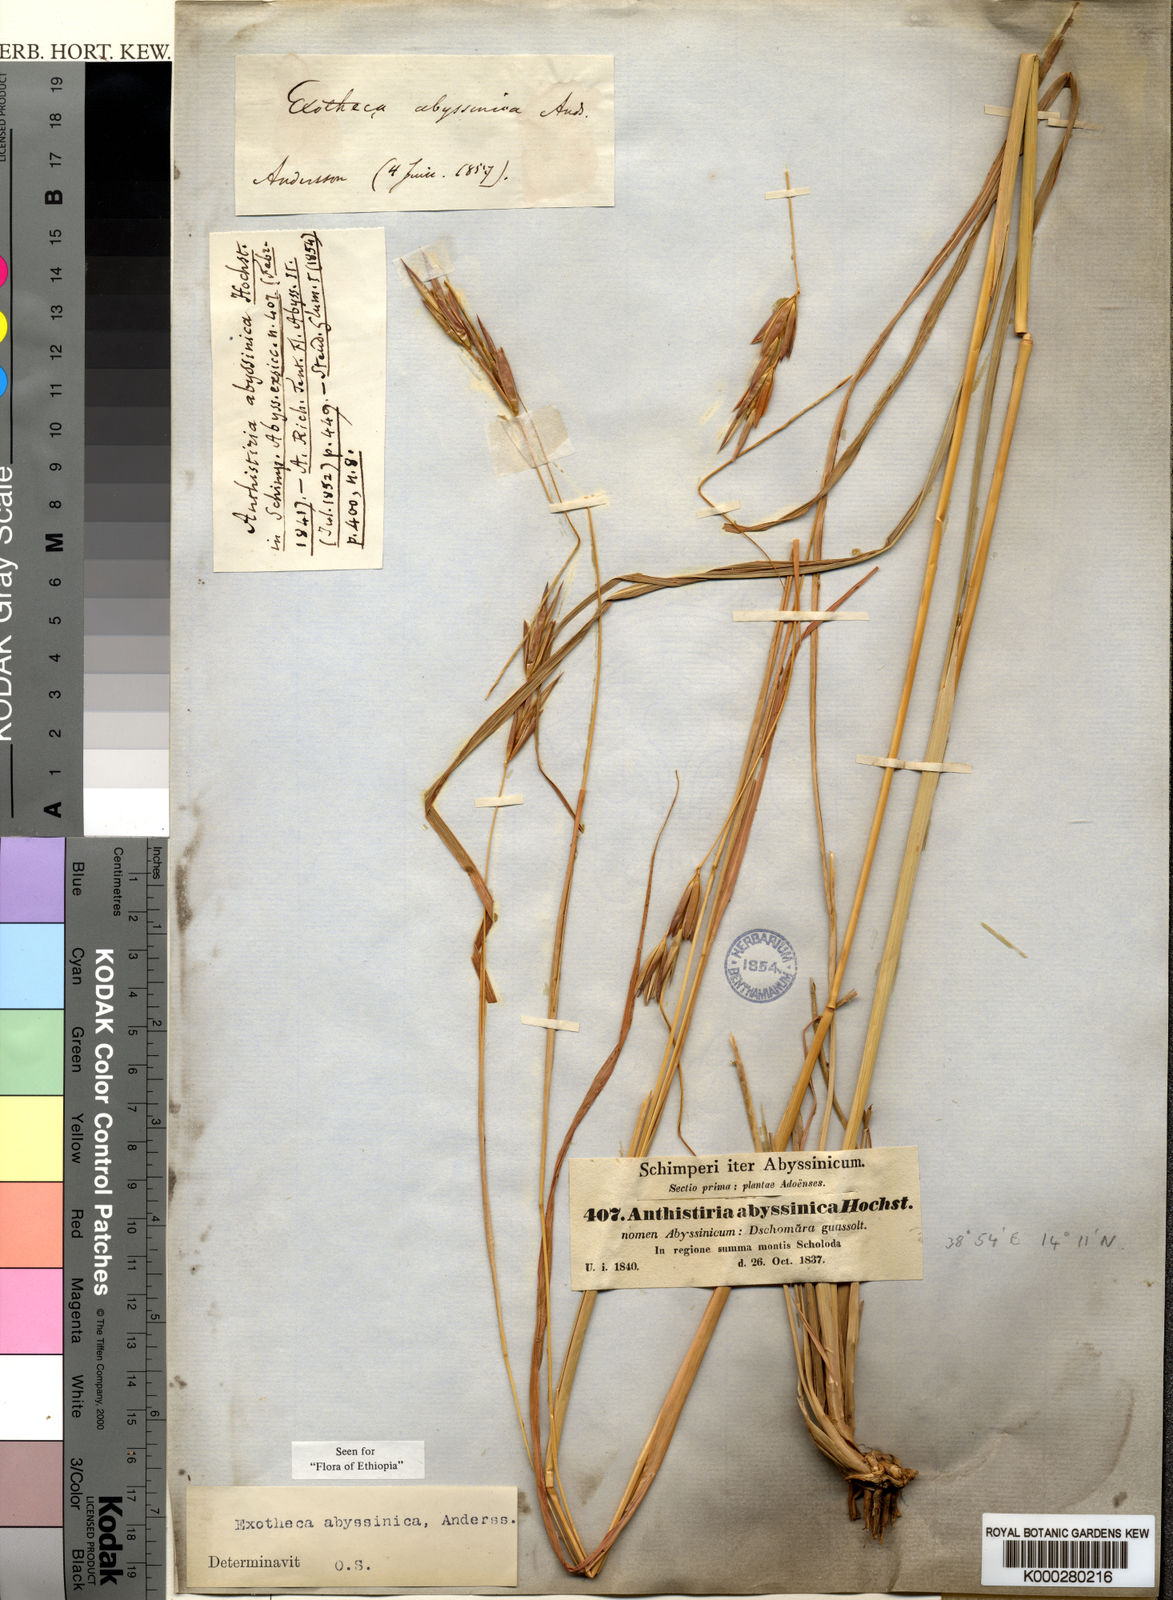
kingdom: Plantae
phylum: Tracheophyta
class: Liliopsida
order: Poales
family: Poaceae
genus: Exotheca
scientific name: Exotheca abyssinica
